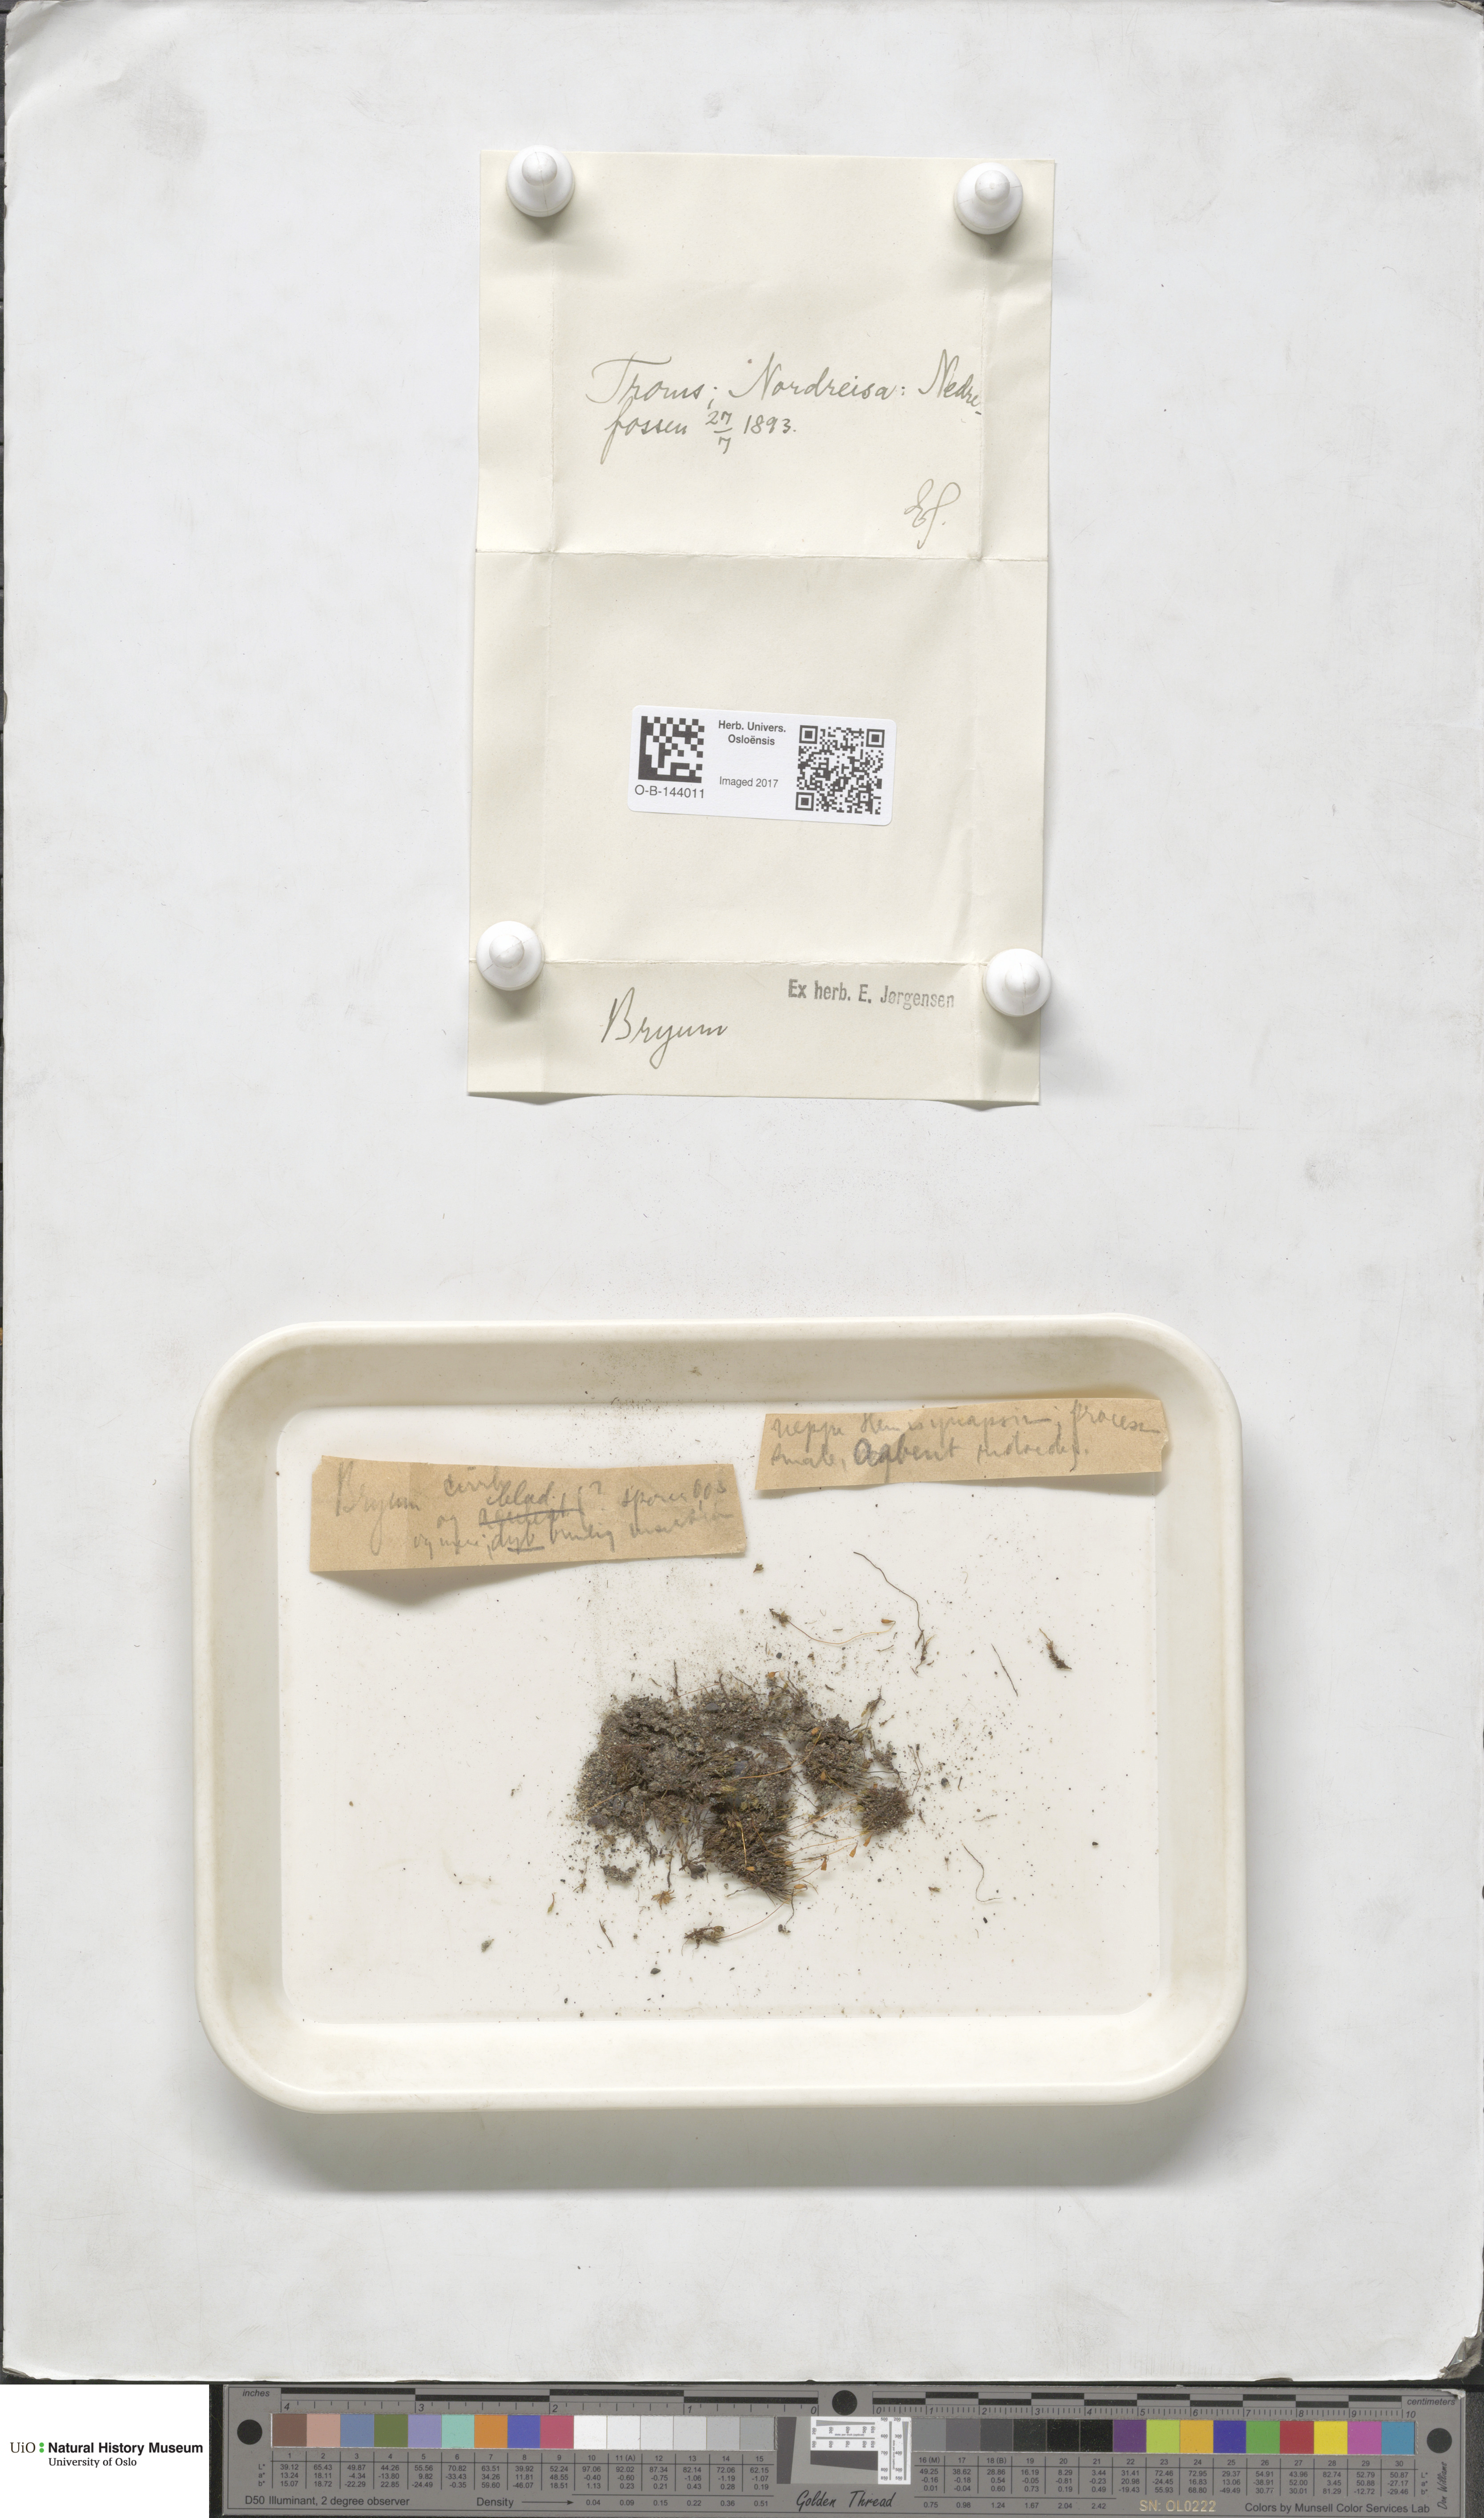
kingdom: Plantae
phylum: Bryophyta
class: Bryopsida
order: Bryales
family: Bryaceae
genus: Bryum
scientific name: Bryum
